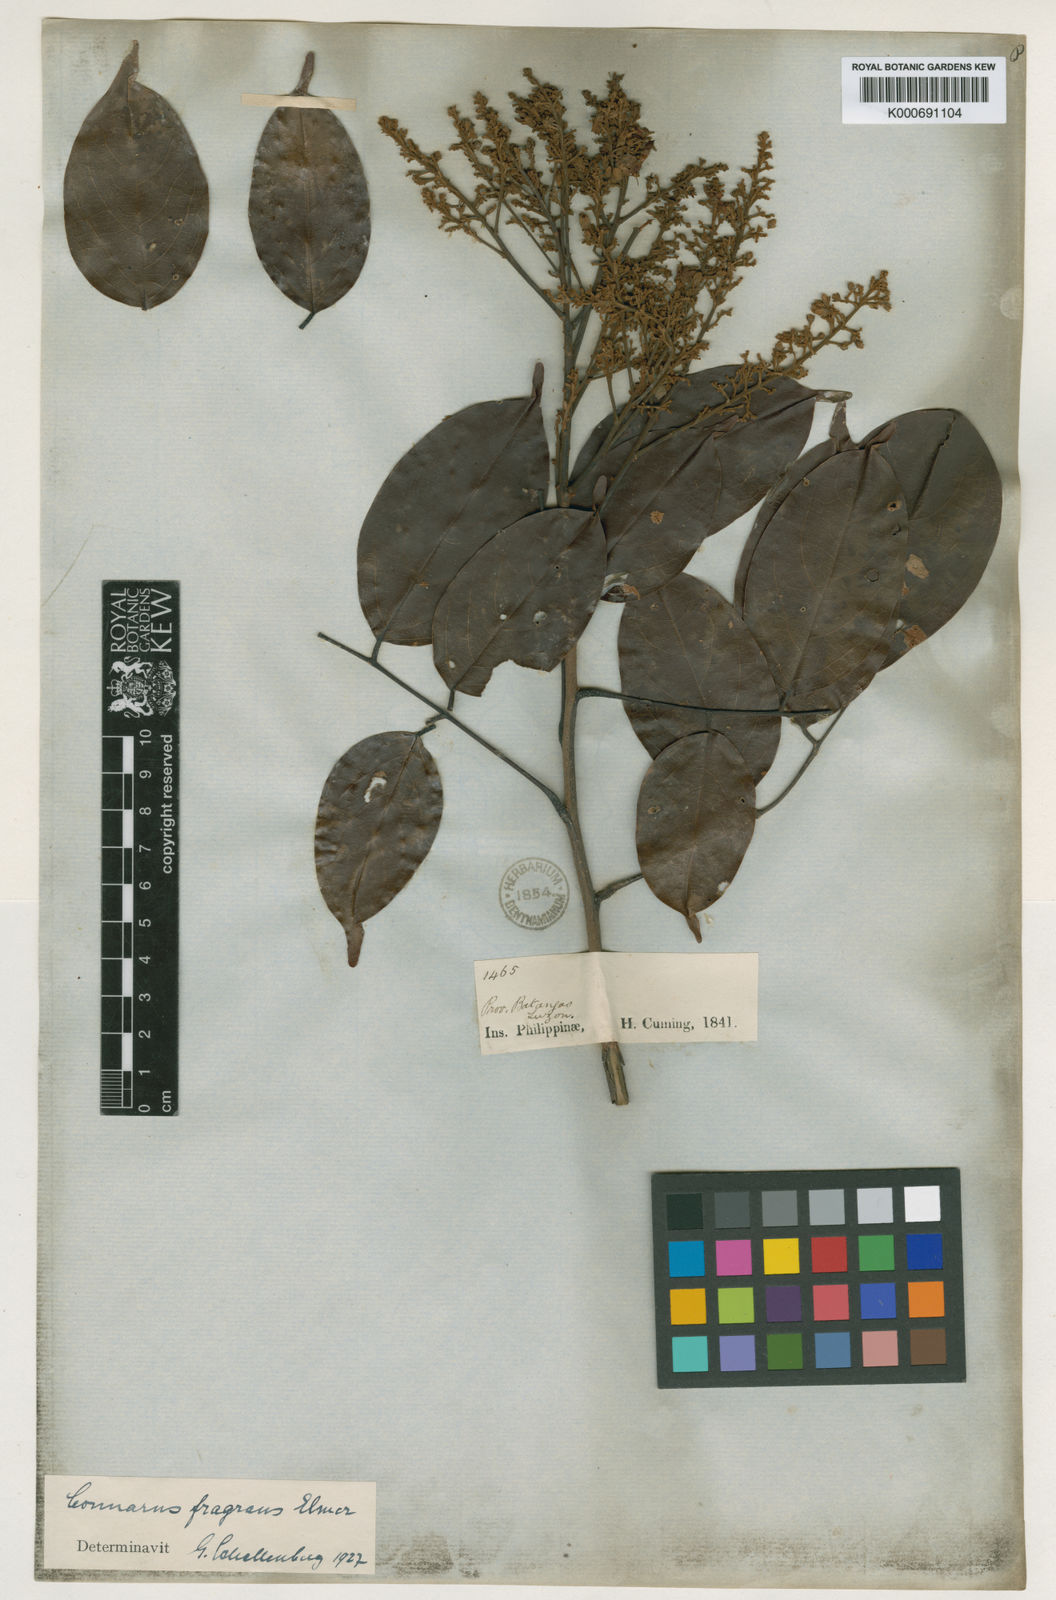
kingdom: Plantae
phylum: Tracheophyta
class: Magnoliopsida
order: Oxalidales
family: Connaraceae
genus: Connarus
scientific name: Connarus semidecandrus
